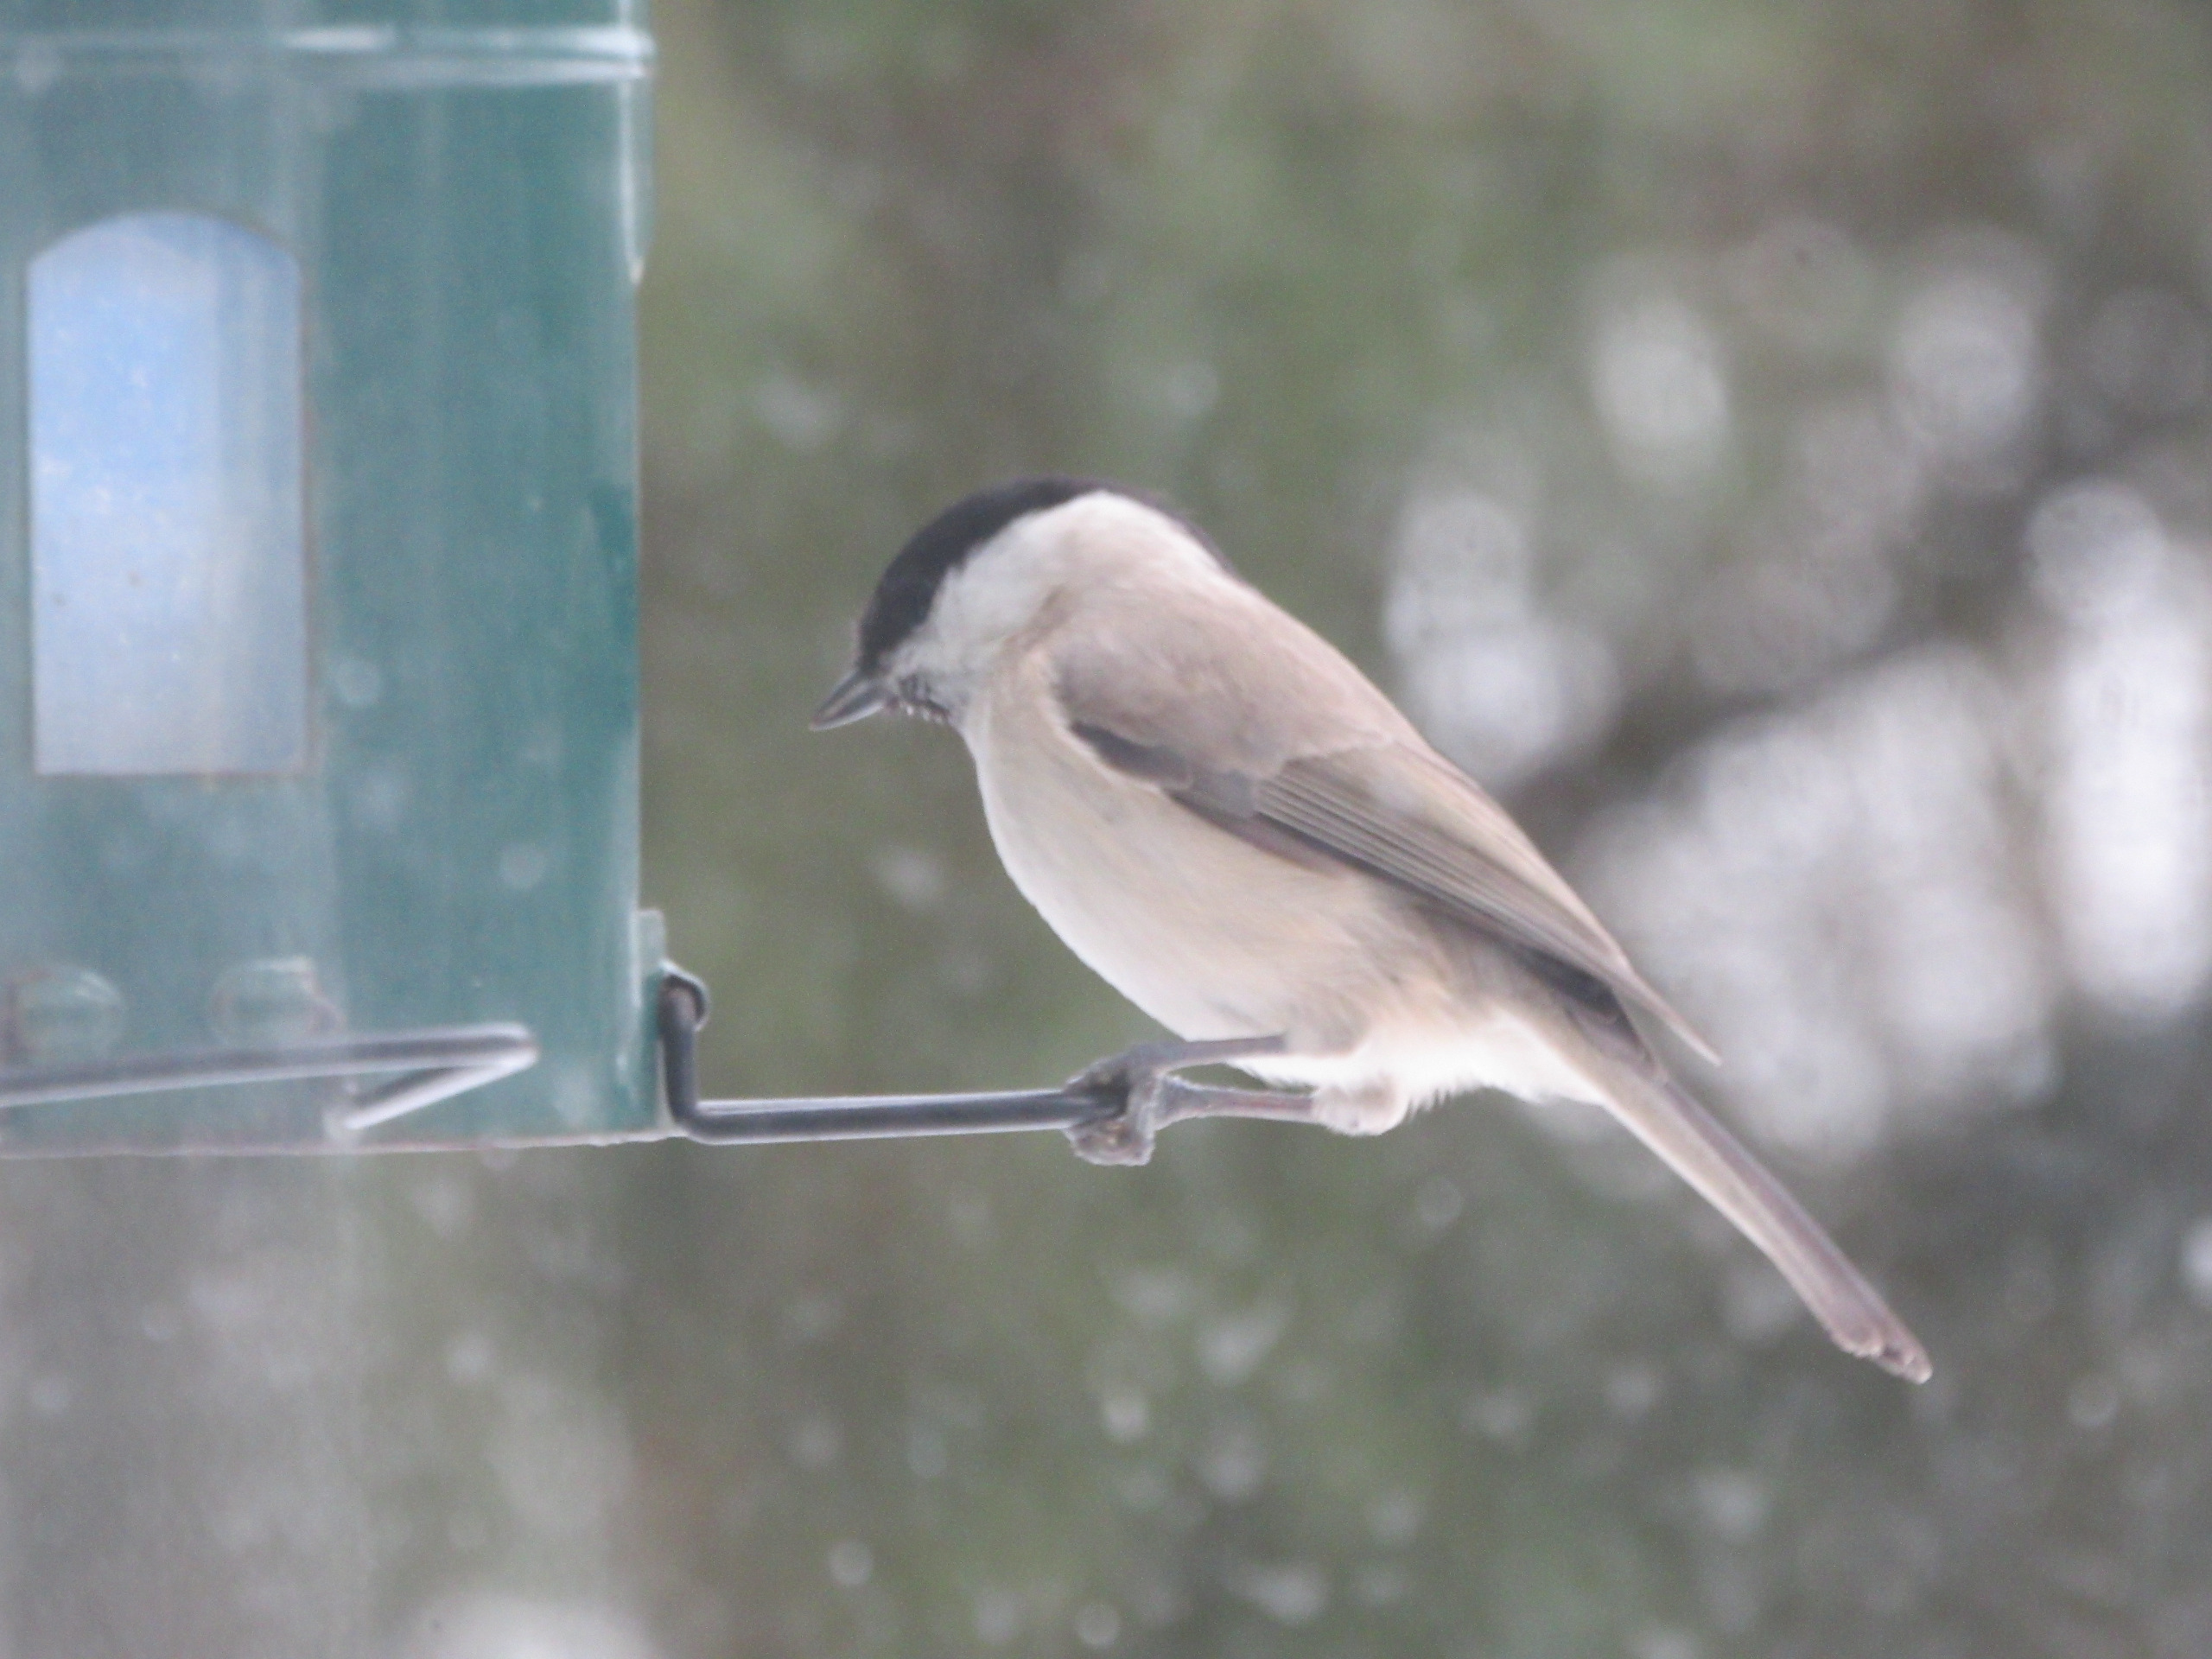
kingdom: Animalia
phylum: Chordata
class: Aves
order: Passeriformes
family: Paridae
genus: Poecile
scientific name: Poecile palustris
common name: Sumpmejse
